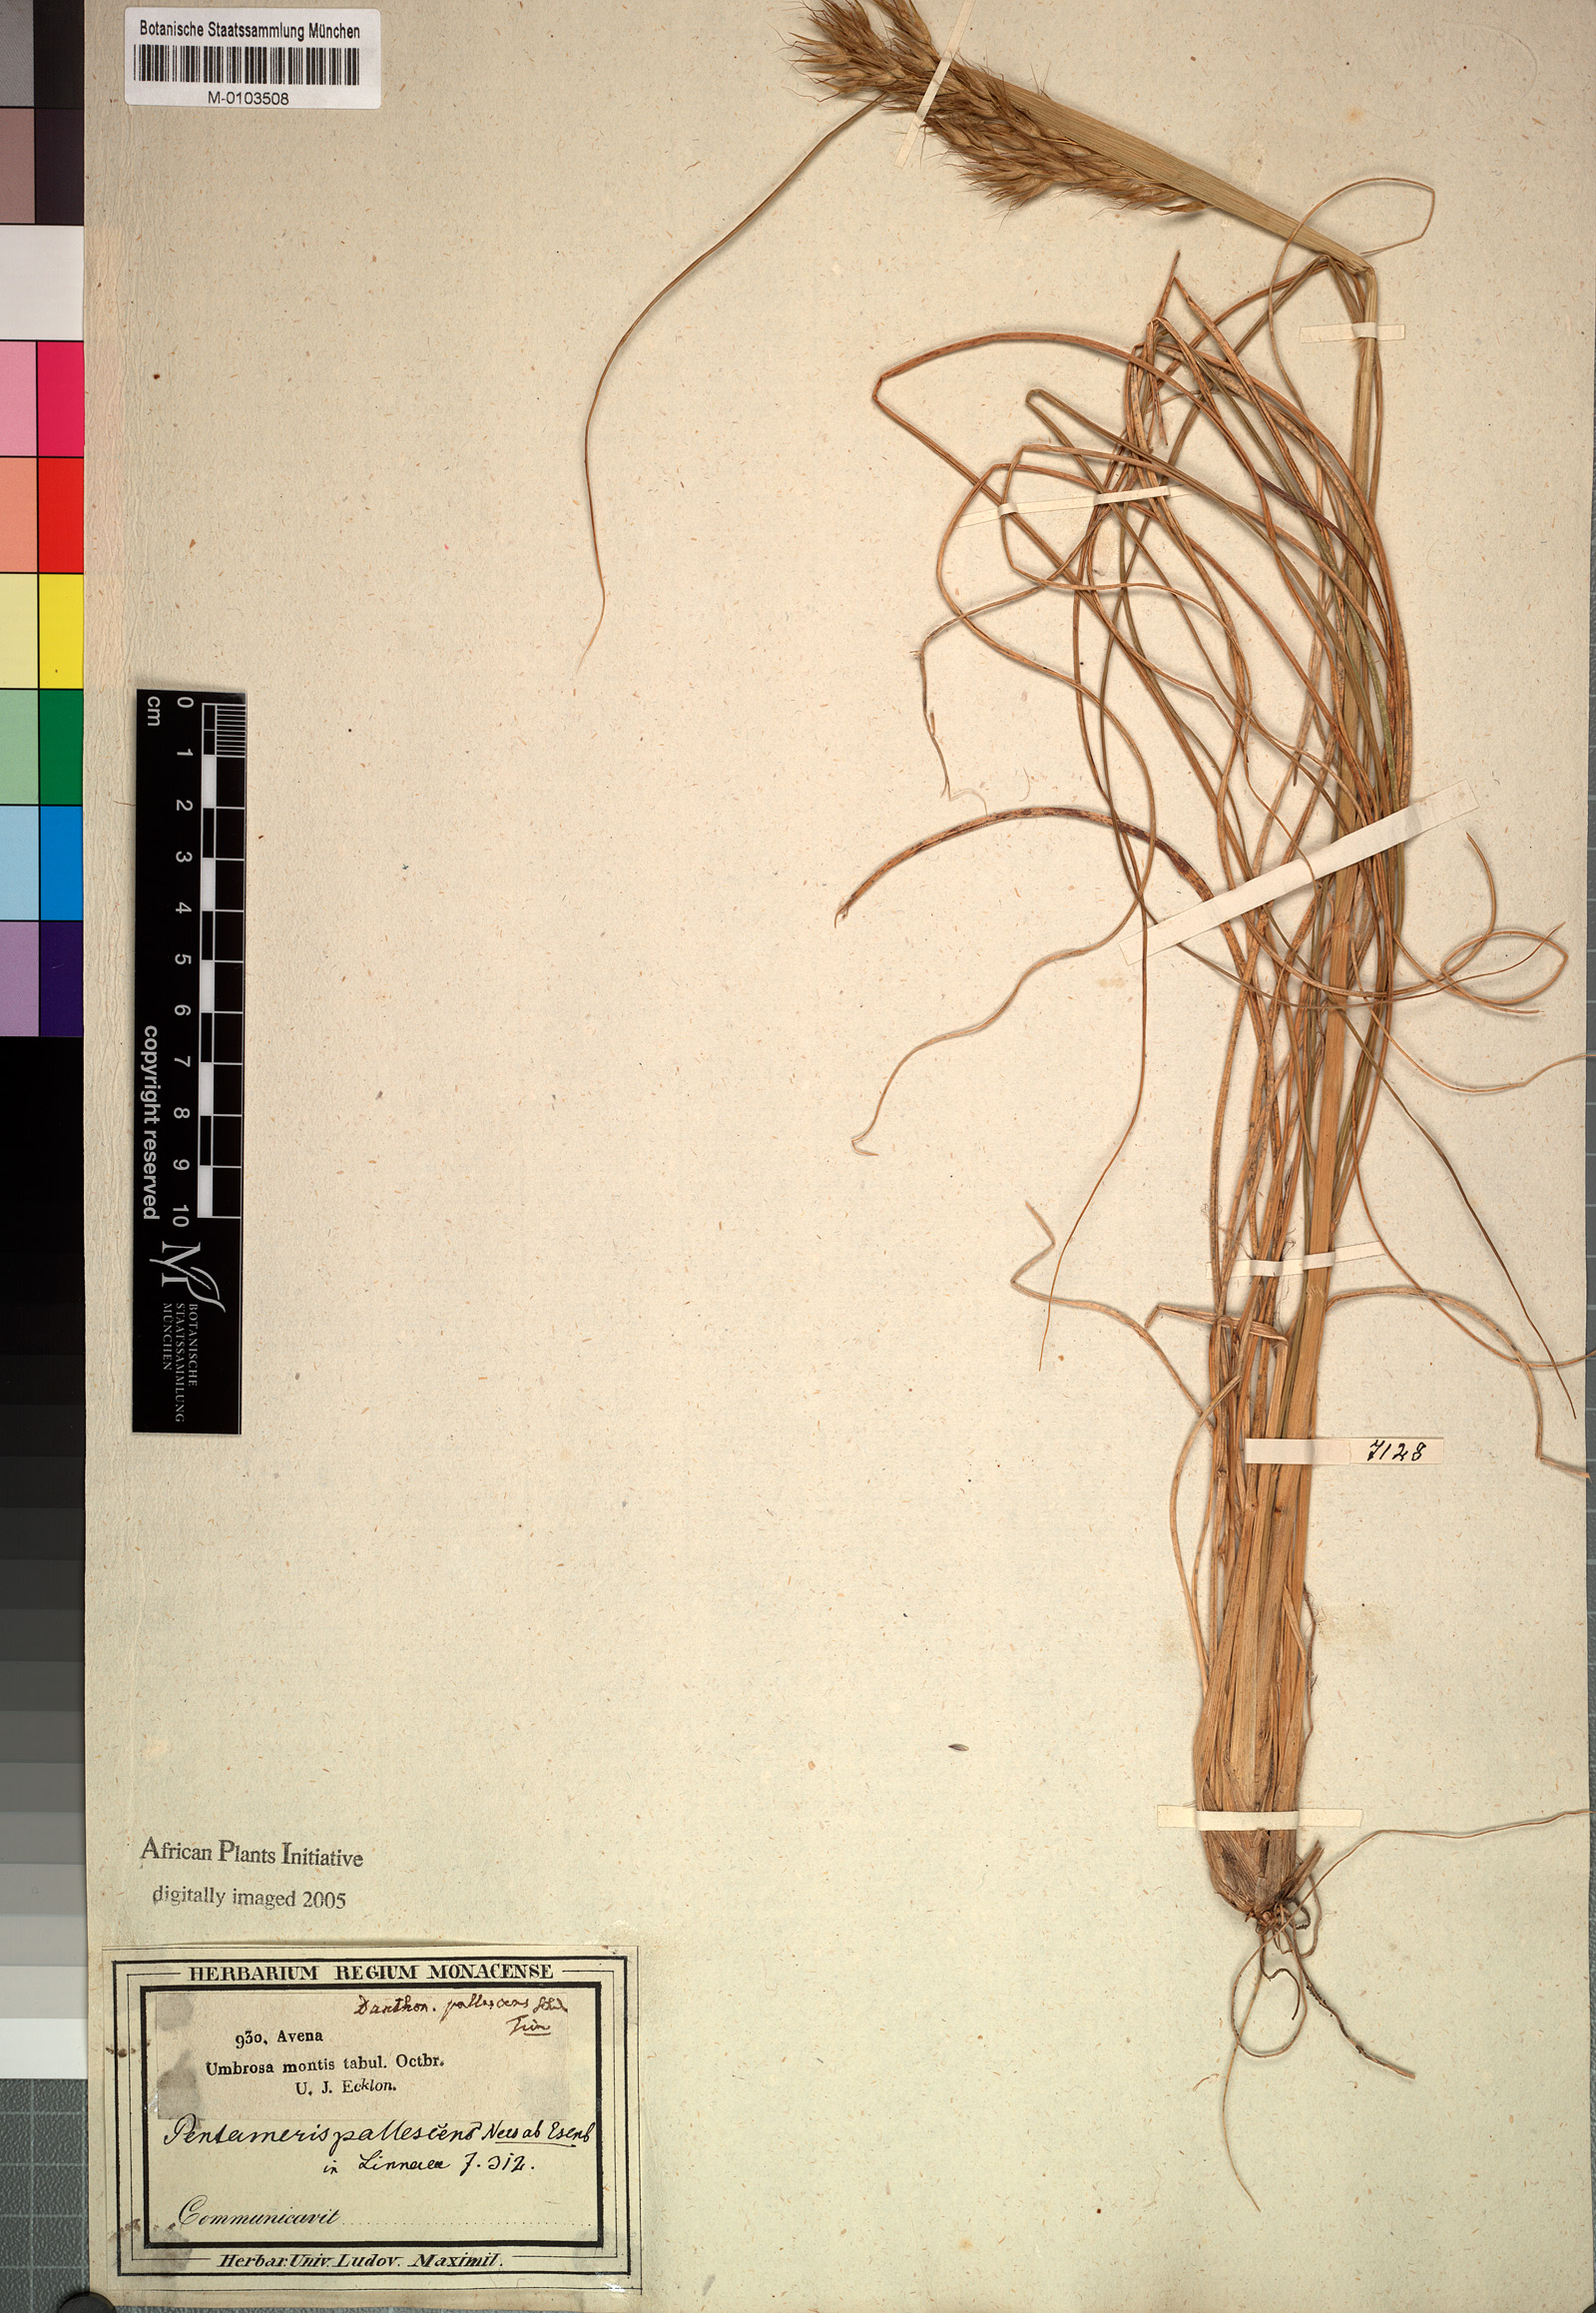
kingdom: Plantae
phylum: Tracheophyta
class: Liliopsida
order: Poales
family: Poaceae
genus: Pentameris
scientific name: Pentameris pallescens
